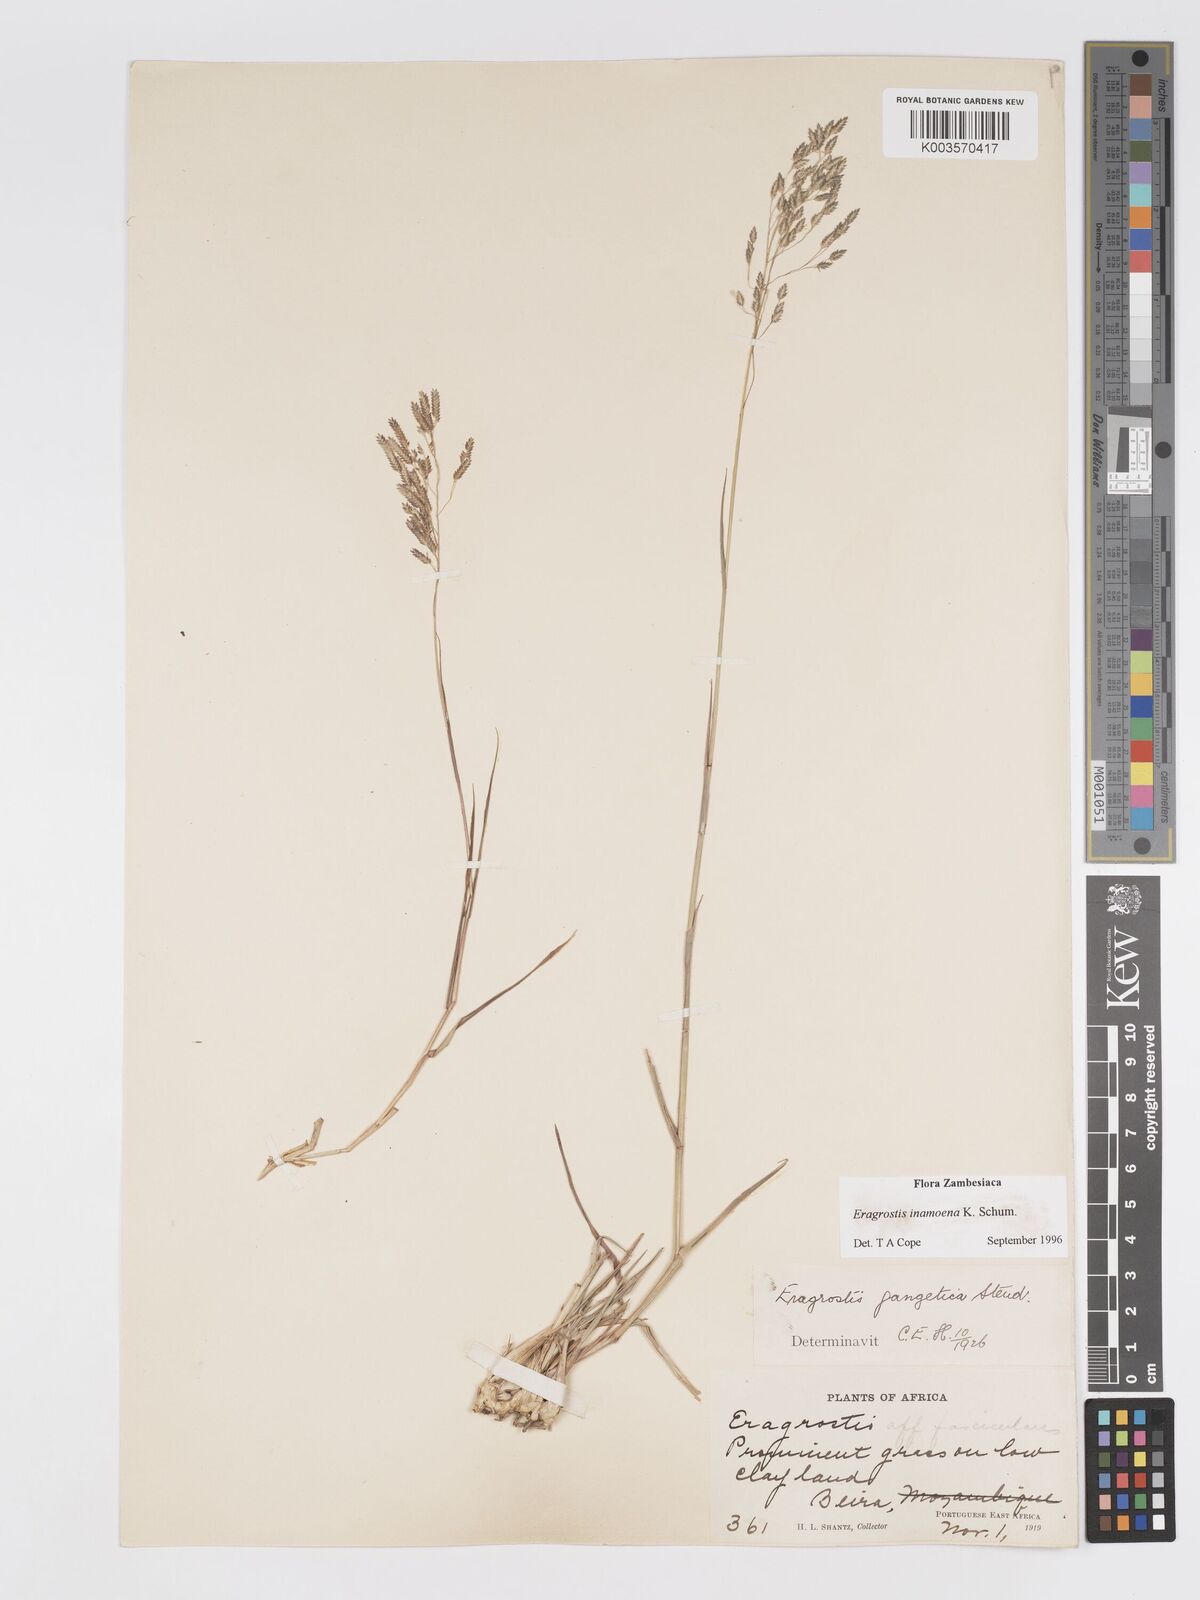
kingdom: Plantae
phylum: Tracheophyta
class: Liliopsida
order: Poales
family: Poaceae
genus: Eragrostis
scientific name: Eragrostis inamoena
